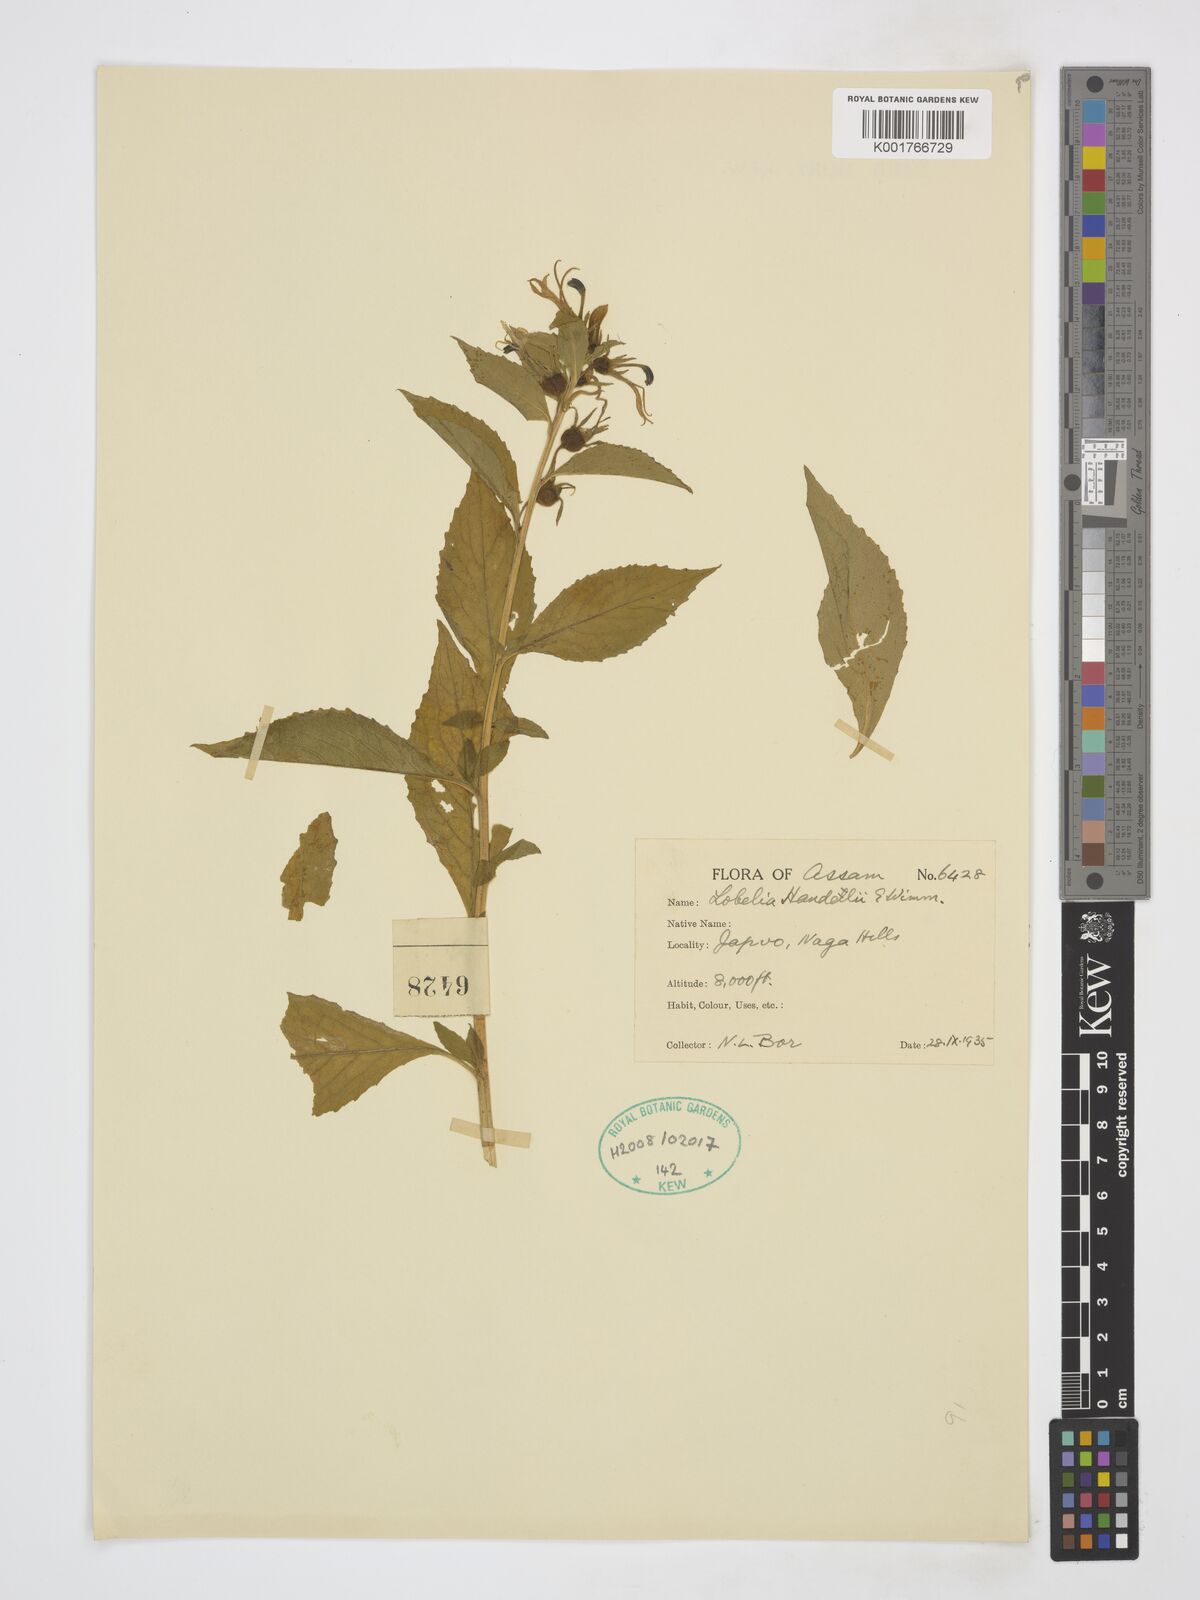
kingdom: Plantae
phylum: Tracheophyta
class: Magnoliopsida
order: Asterales
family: Campanulaceae
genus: Lobelia
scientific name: Lobelia pleotricha
